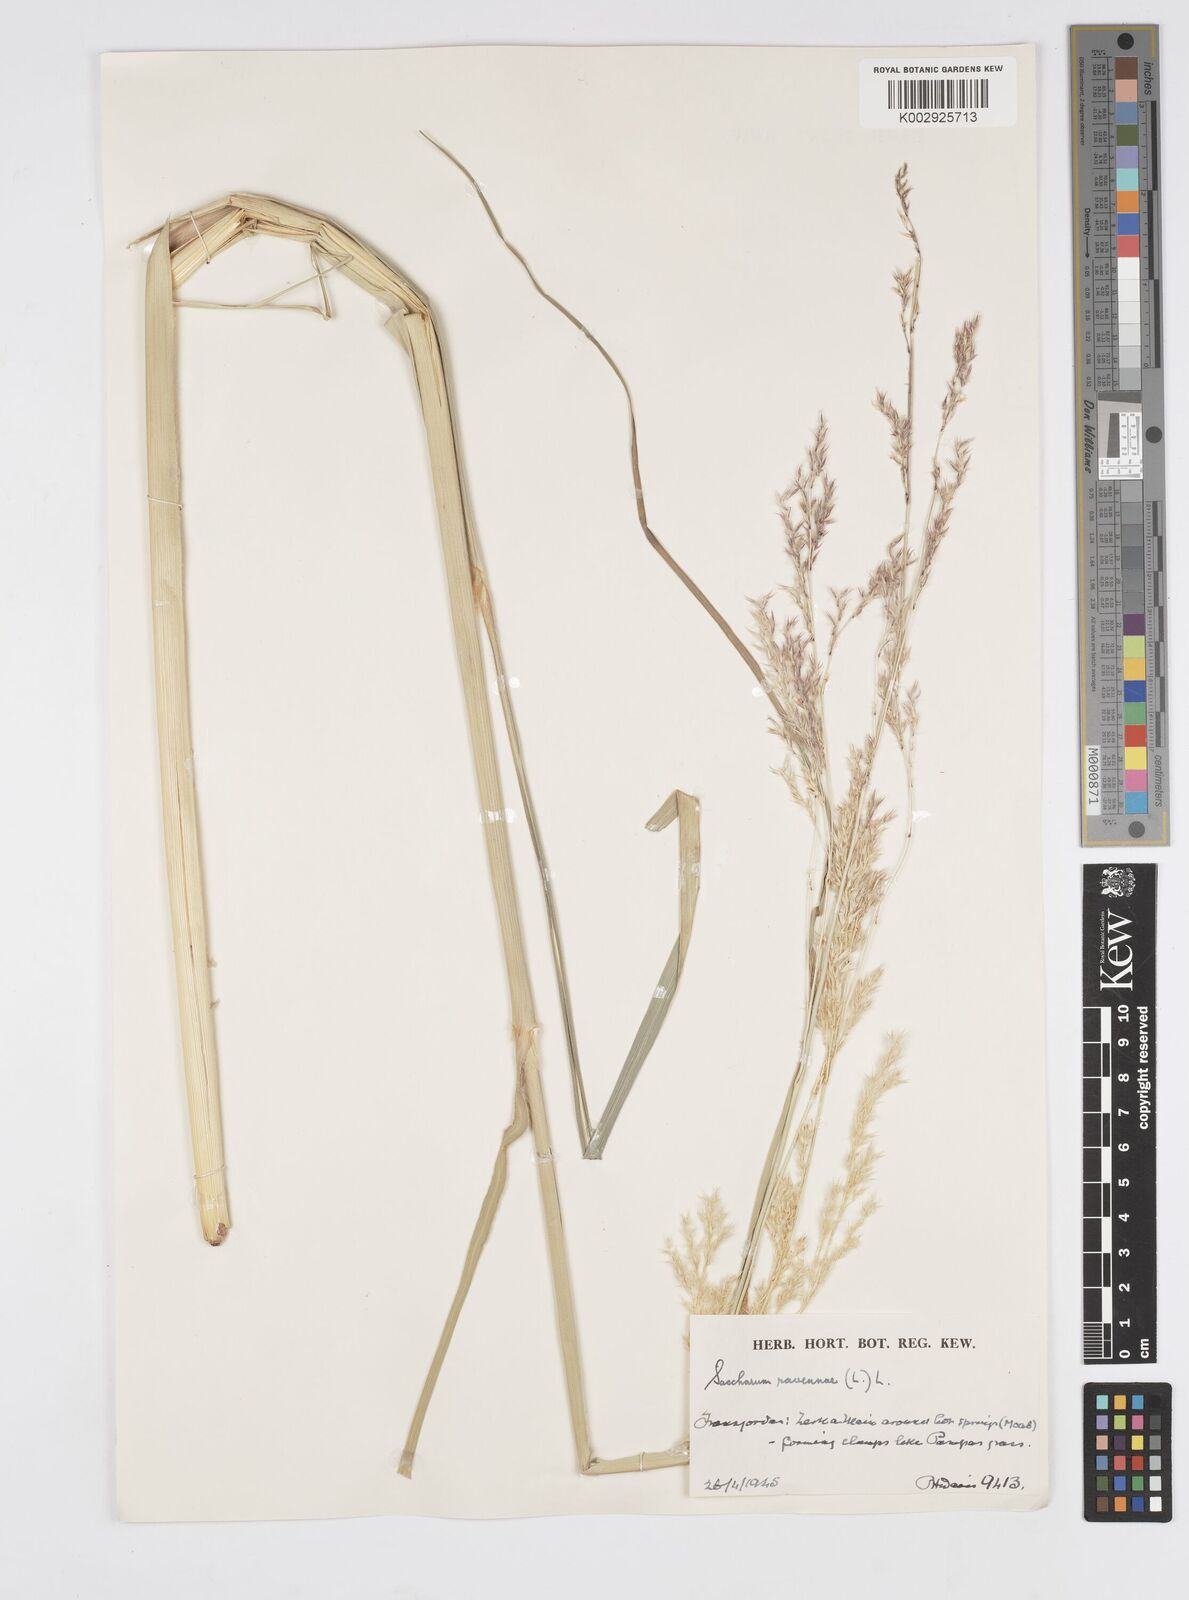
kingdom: Plantae
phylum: Tracheophyta
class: Liliopsida
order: Poales
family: Poaceae
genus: Tripidium
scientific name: Tripidium ravennae
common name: Ravenna grass
